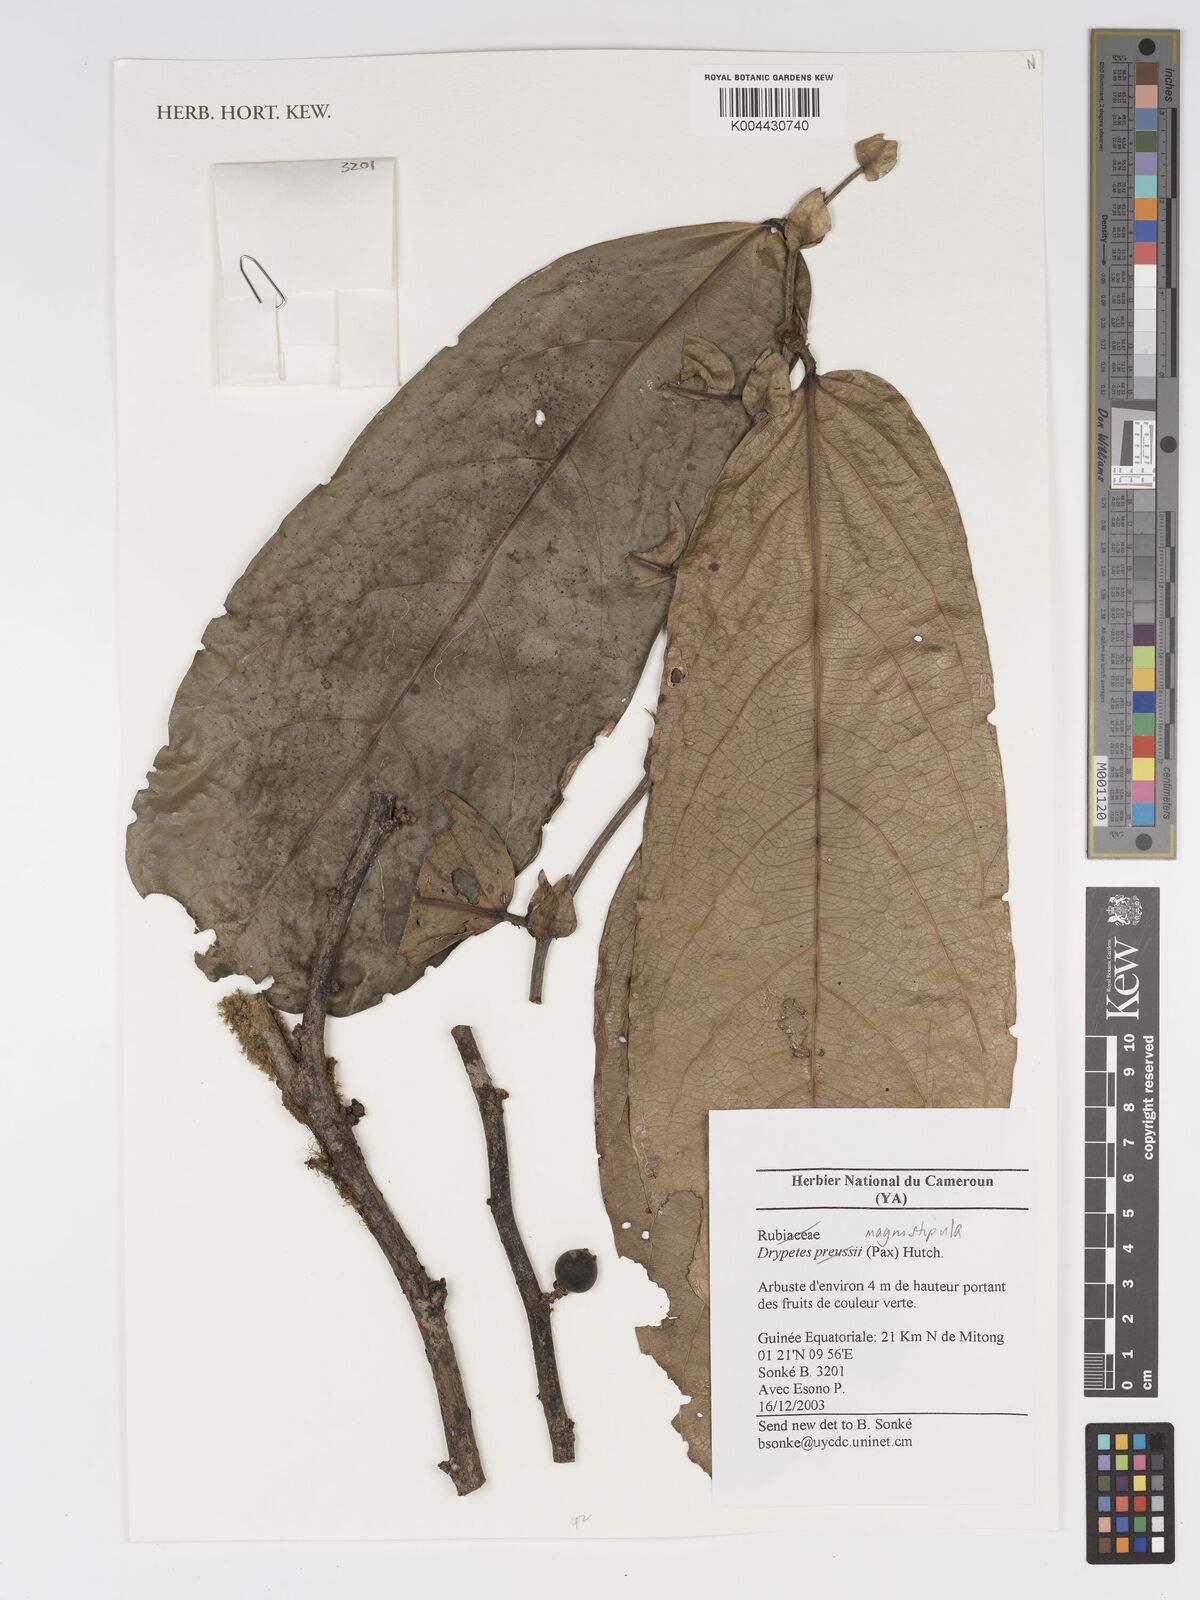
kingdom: Plantae
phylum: Tracheophyta
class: Magnoliopsida
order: Malpighiales
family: Putranjivaceae
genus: Drypetes
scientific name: Drypetes magnistipula
